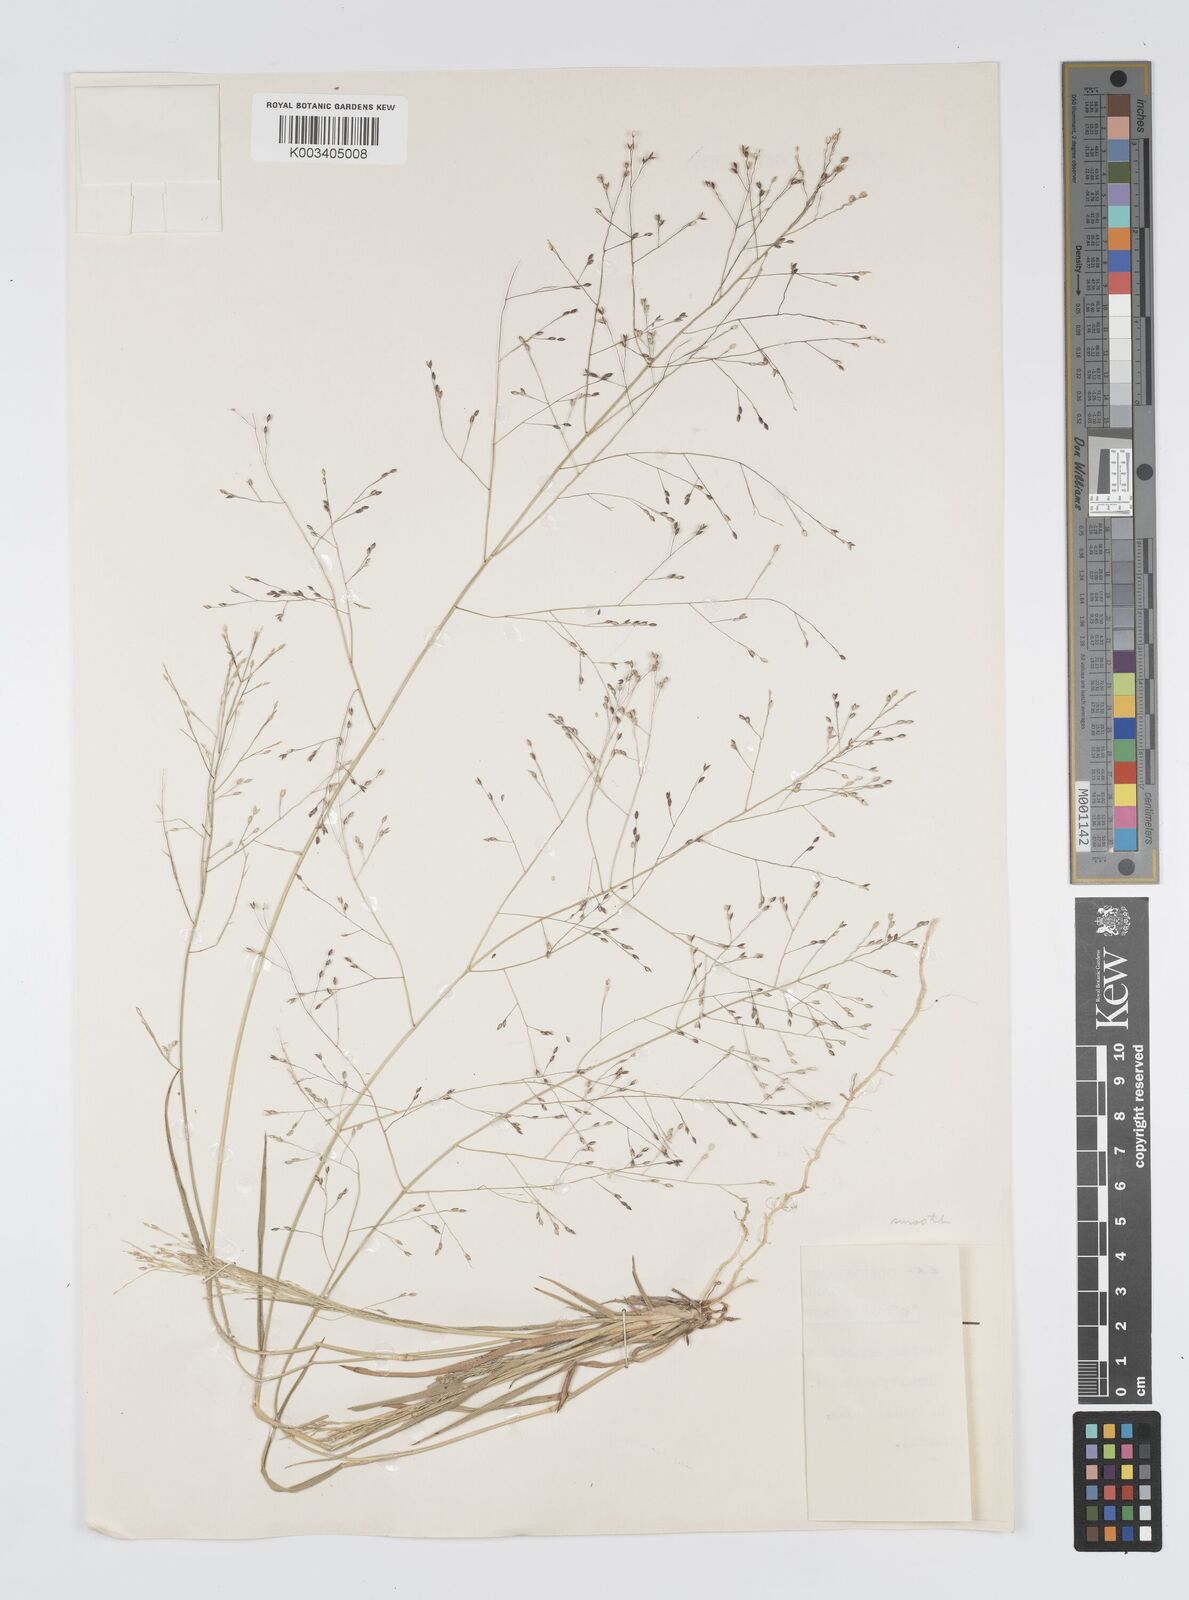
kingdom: Plantae
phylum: Tracheophyta
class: Liliopsida
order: Poales
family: Poaceae
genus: Panicum
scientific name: Panicum effusum
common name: Hairy panic grass
